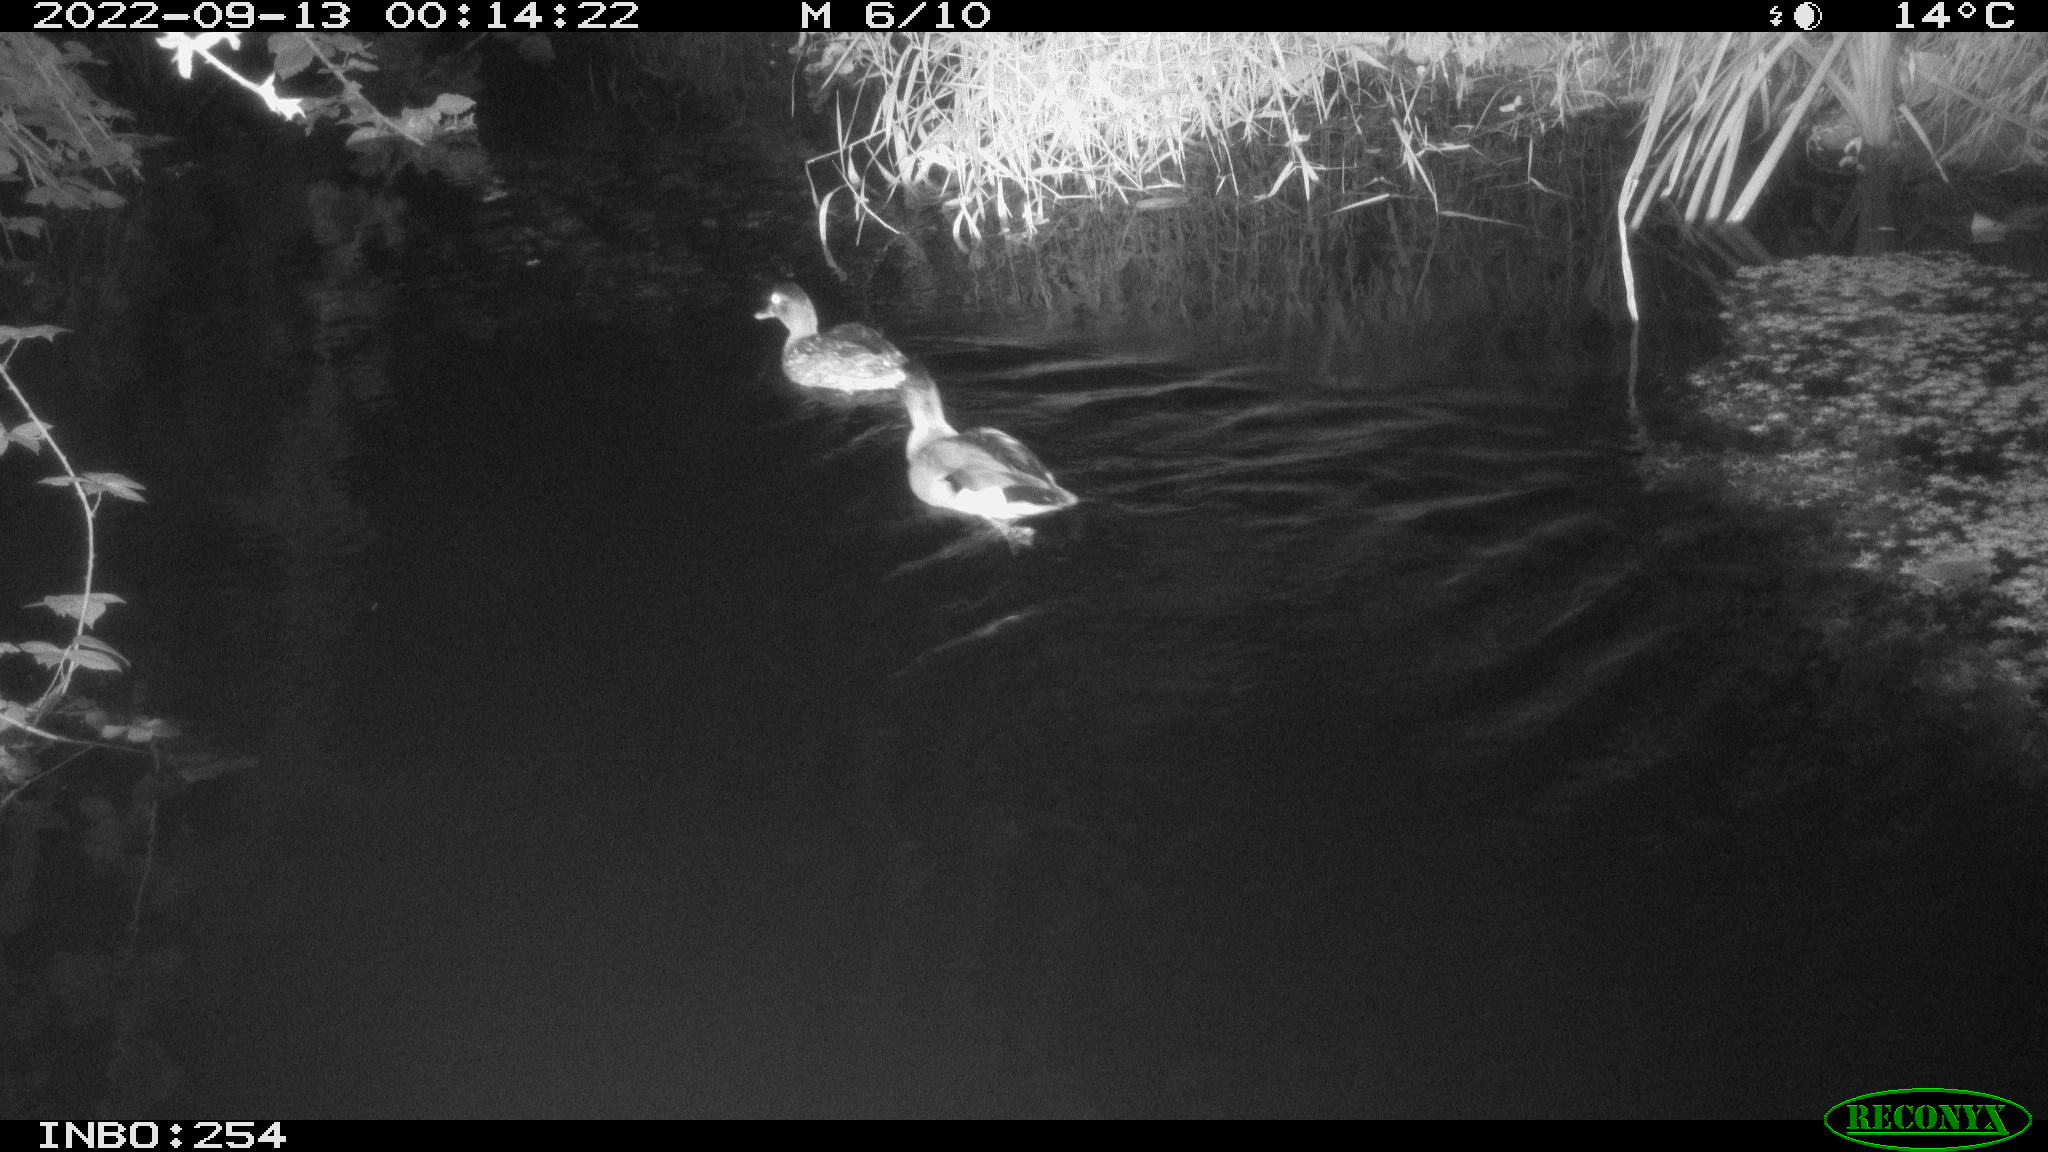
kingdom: Animalia
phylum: Chordata
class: Aves
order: Anseriformes
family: Anatidae
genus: Anas
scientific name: Anas platyrhynchos
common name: Mallard
